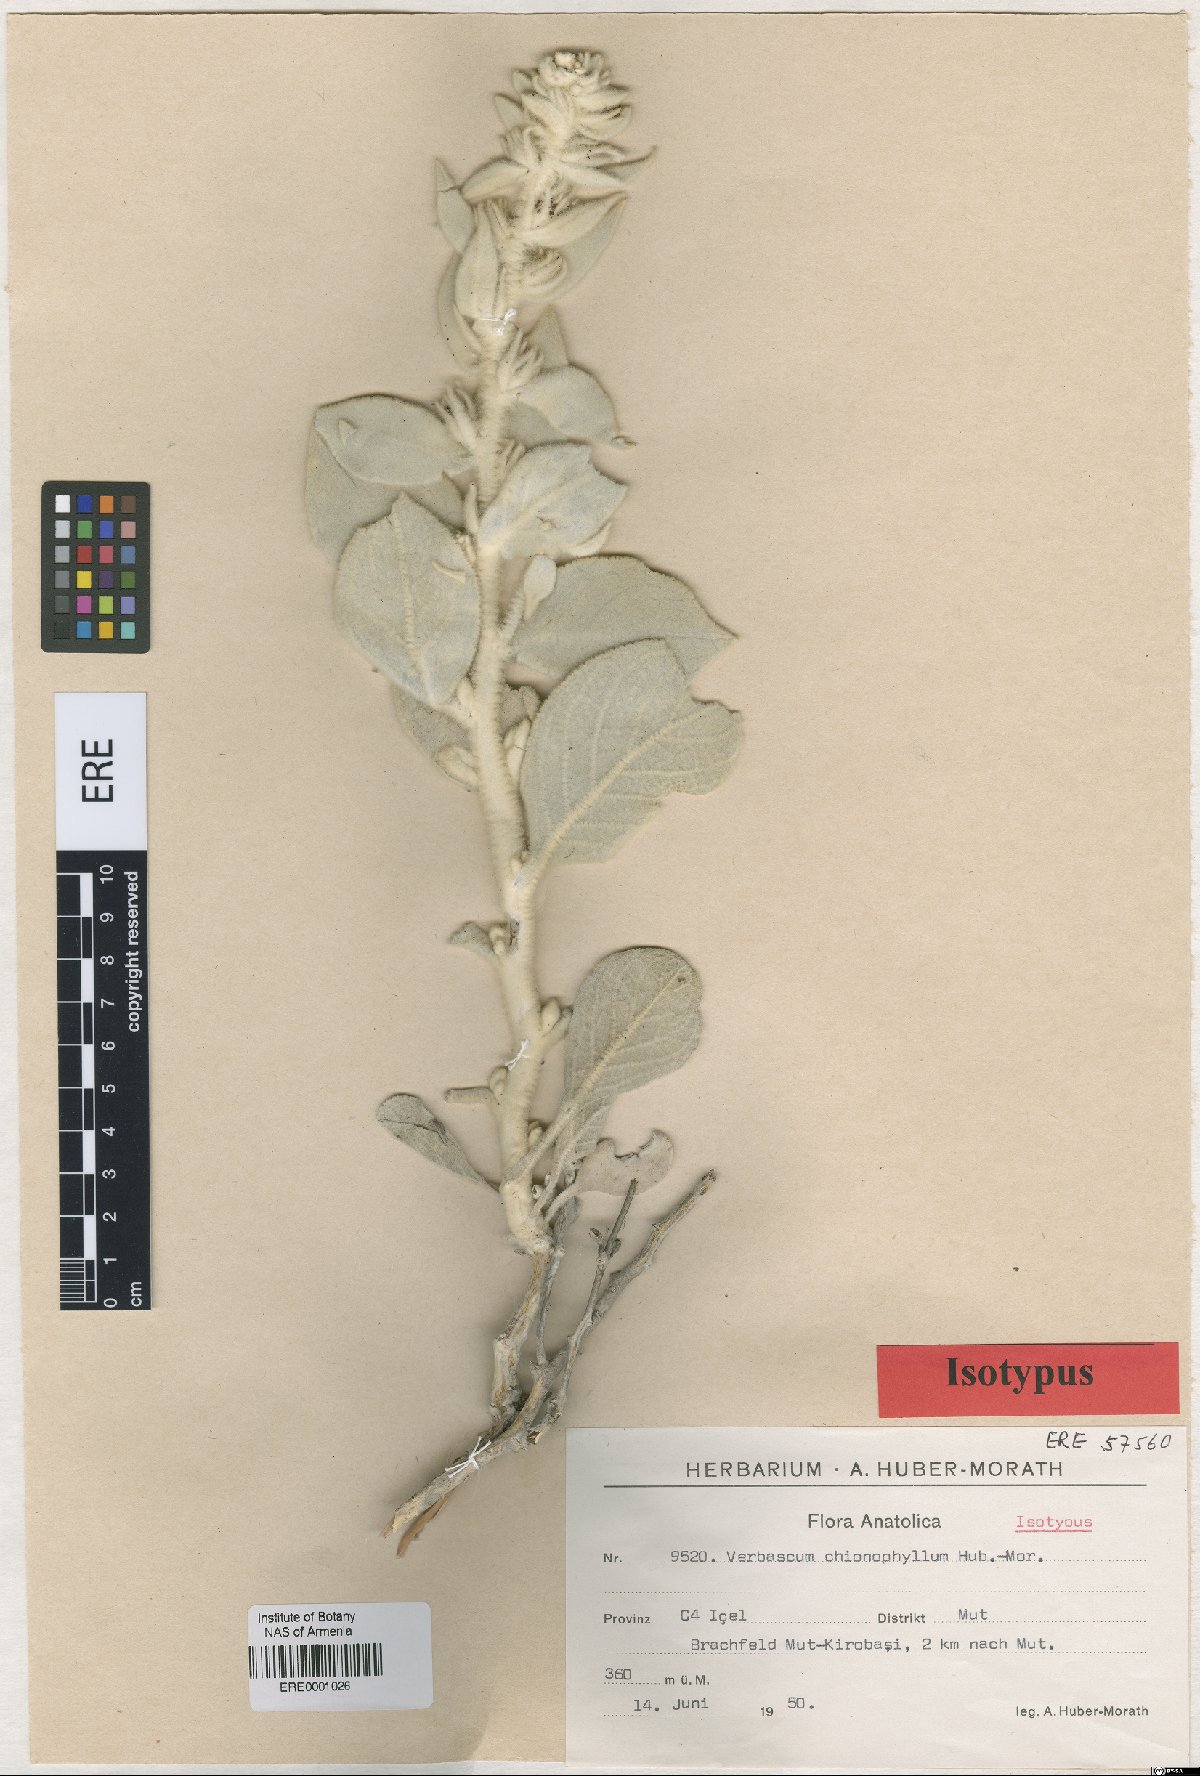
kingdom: Plantae
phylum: Tracheophyta
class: Magnoliopsida
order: Lamiales
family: Scrophulariaceae
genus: Verbascum
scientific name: Verbascum chionophyllum
